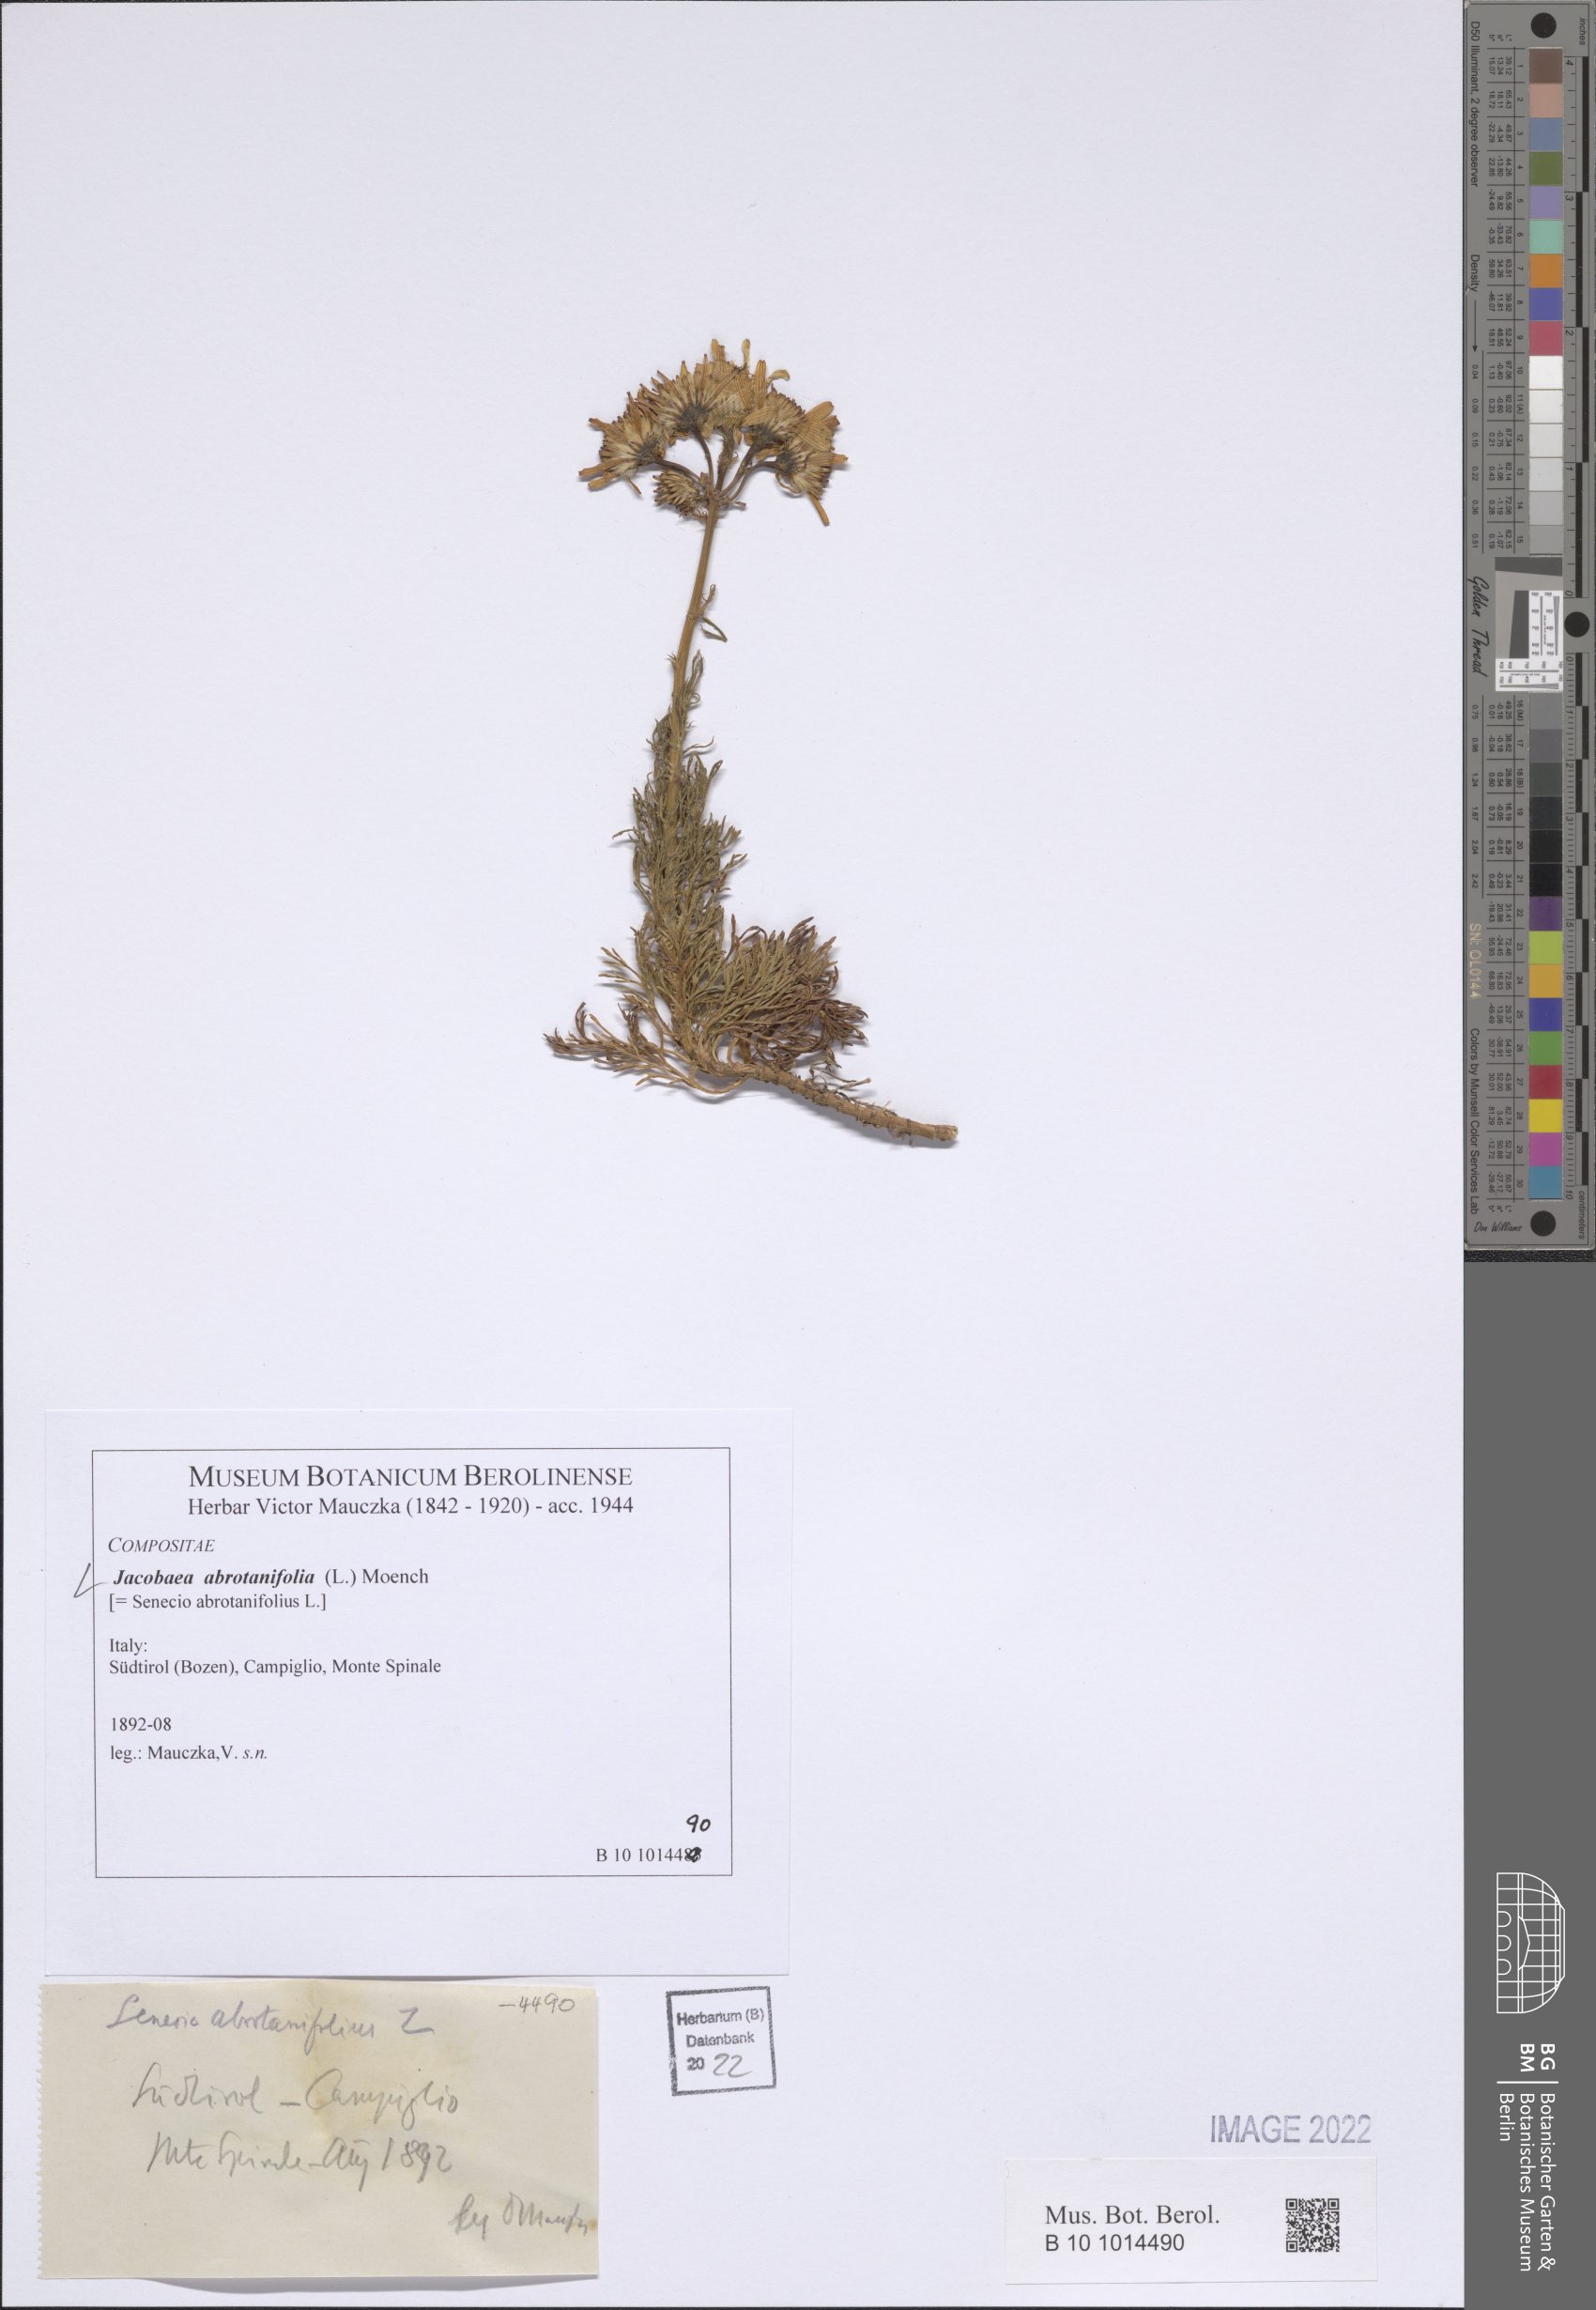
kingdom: Plantae
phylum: Tracheophyta
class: Magnoliopsida
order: Asterales
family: Asteraceae
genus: Jacobaea
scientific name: Jacobaea abrotanifolia
